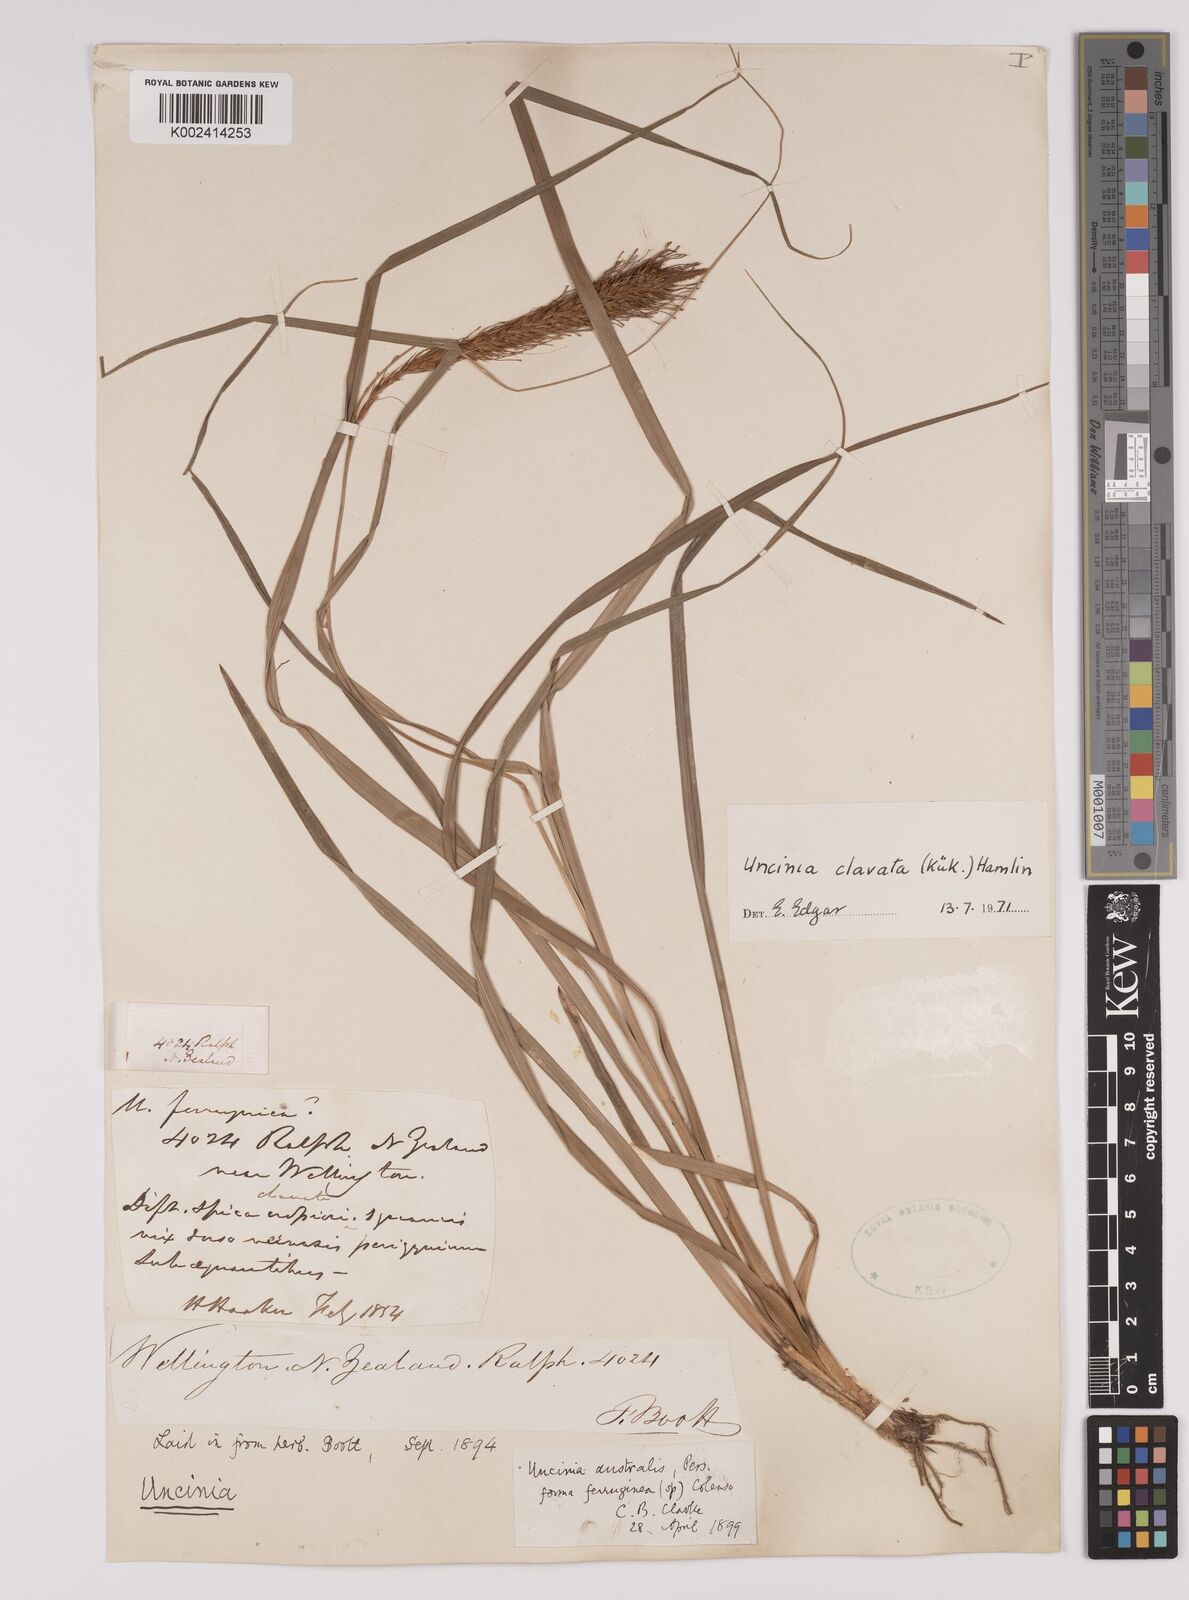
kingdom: Plantae
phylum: Tracheophyta
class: Liliopsida
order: Poales
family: Cyperaceae
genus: Carex
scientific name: Carex uncinata
